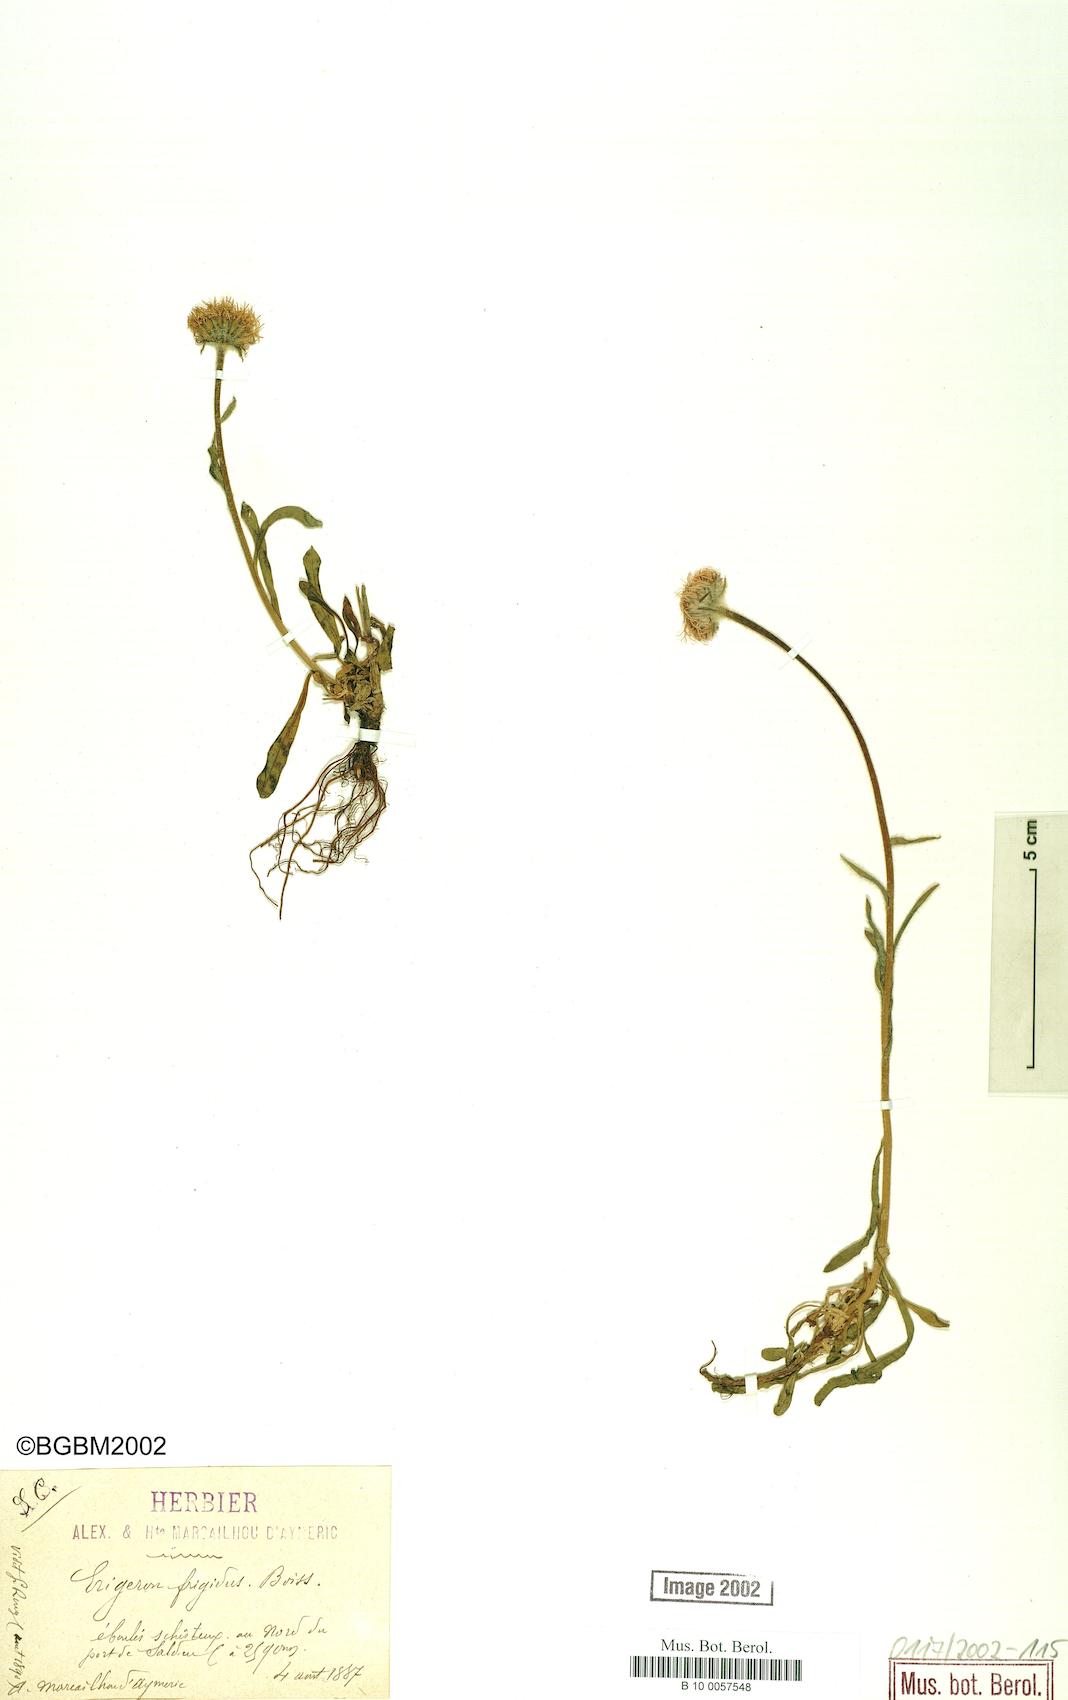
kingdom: Plantae
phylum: Tracheophyta
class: Magnoliopsida
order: Asterales
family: Asteraceae
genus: Erigeron
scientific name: Erigeron aragonensis
